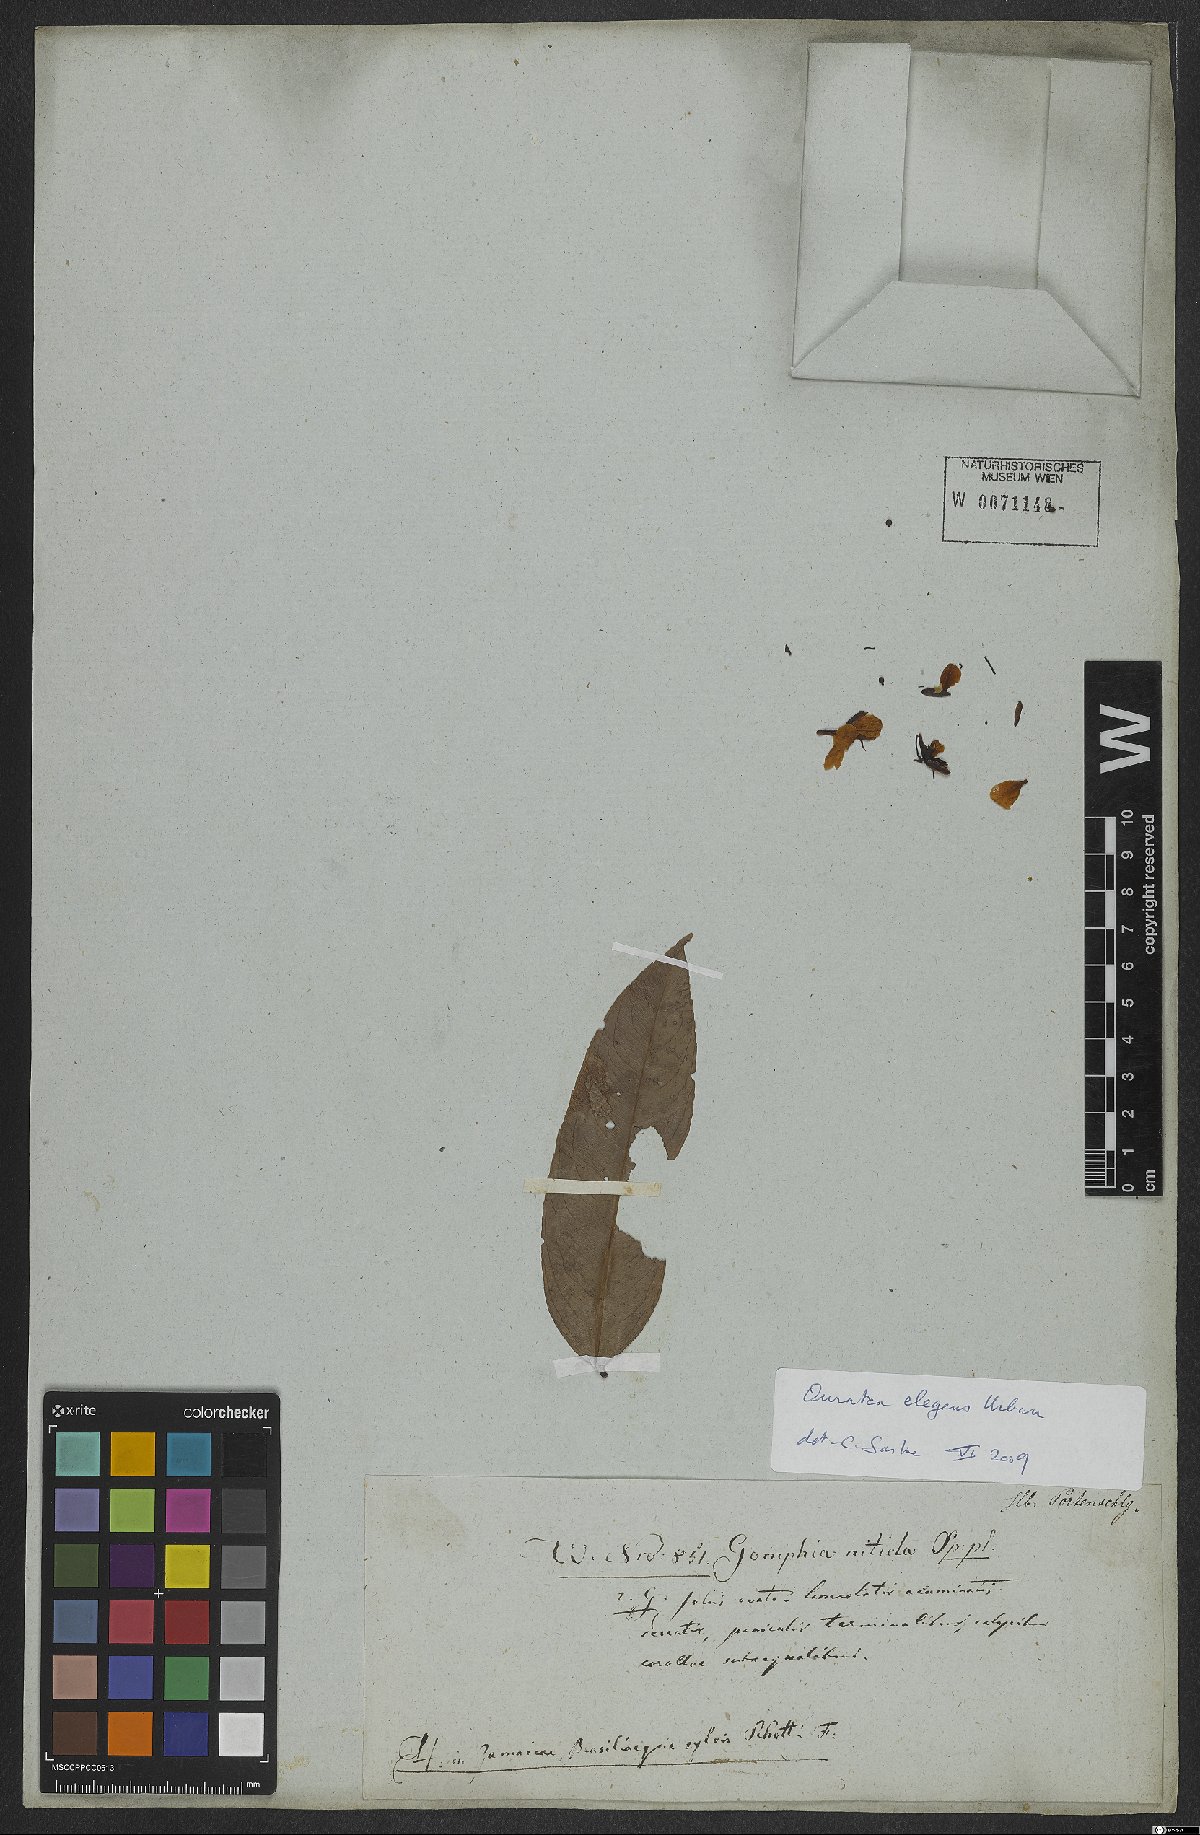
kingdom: Plantae
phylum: Tracheophyta
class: Magnoliopsida
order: Malpighiales
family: Ochnaceae
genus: Campylospermum
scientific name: Campylospermum reticulatum
